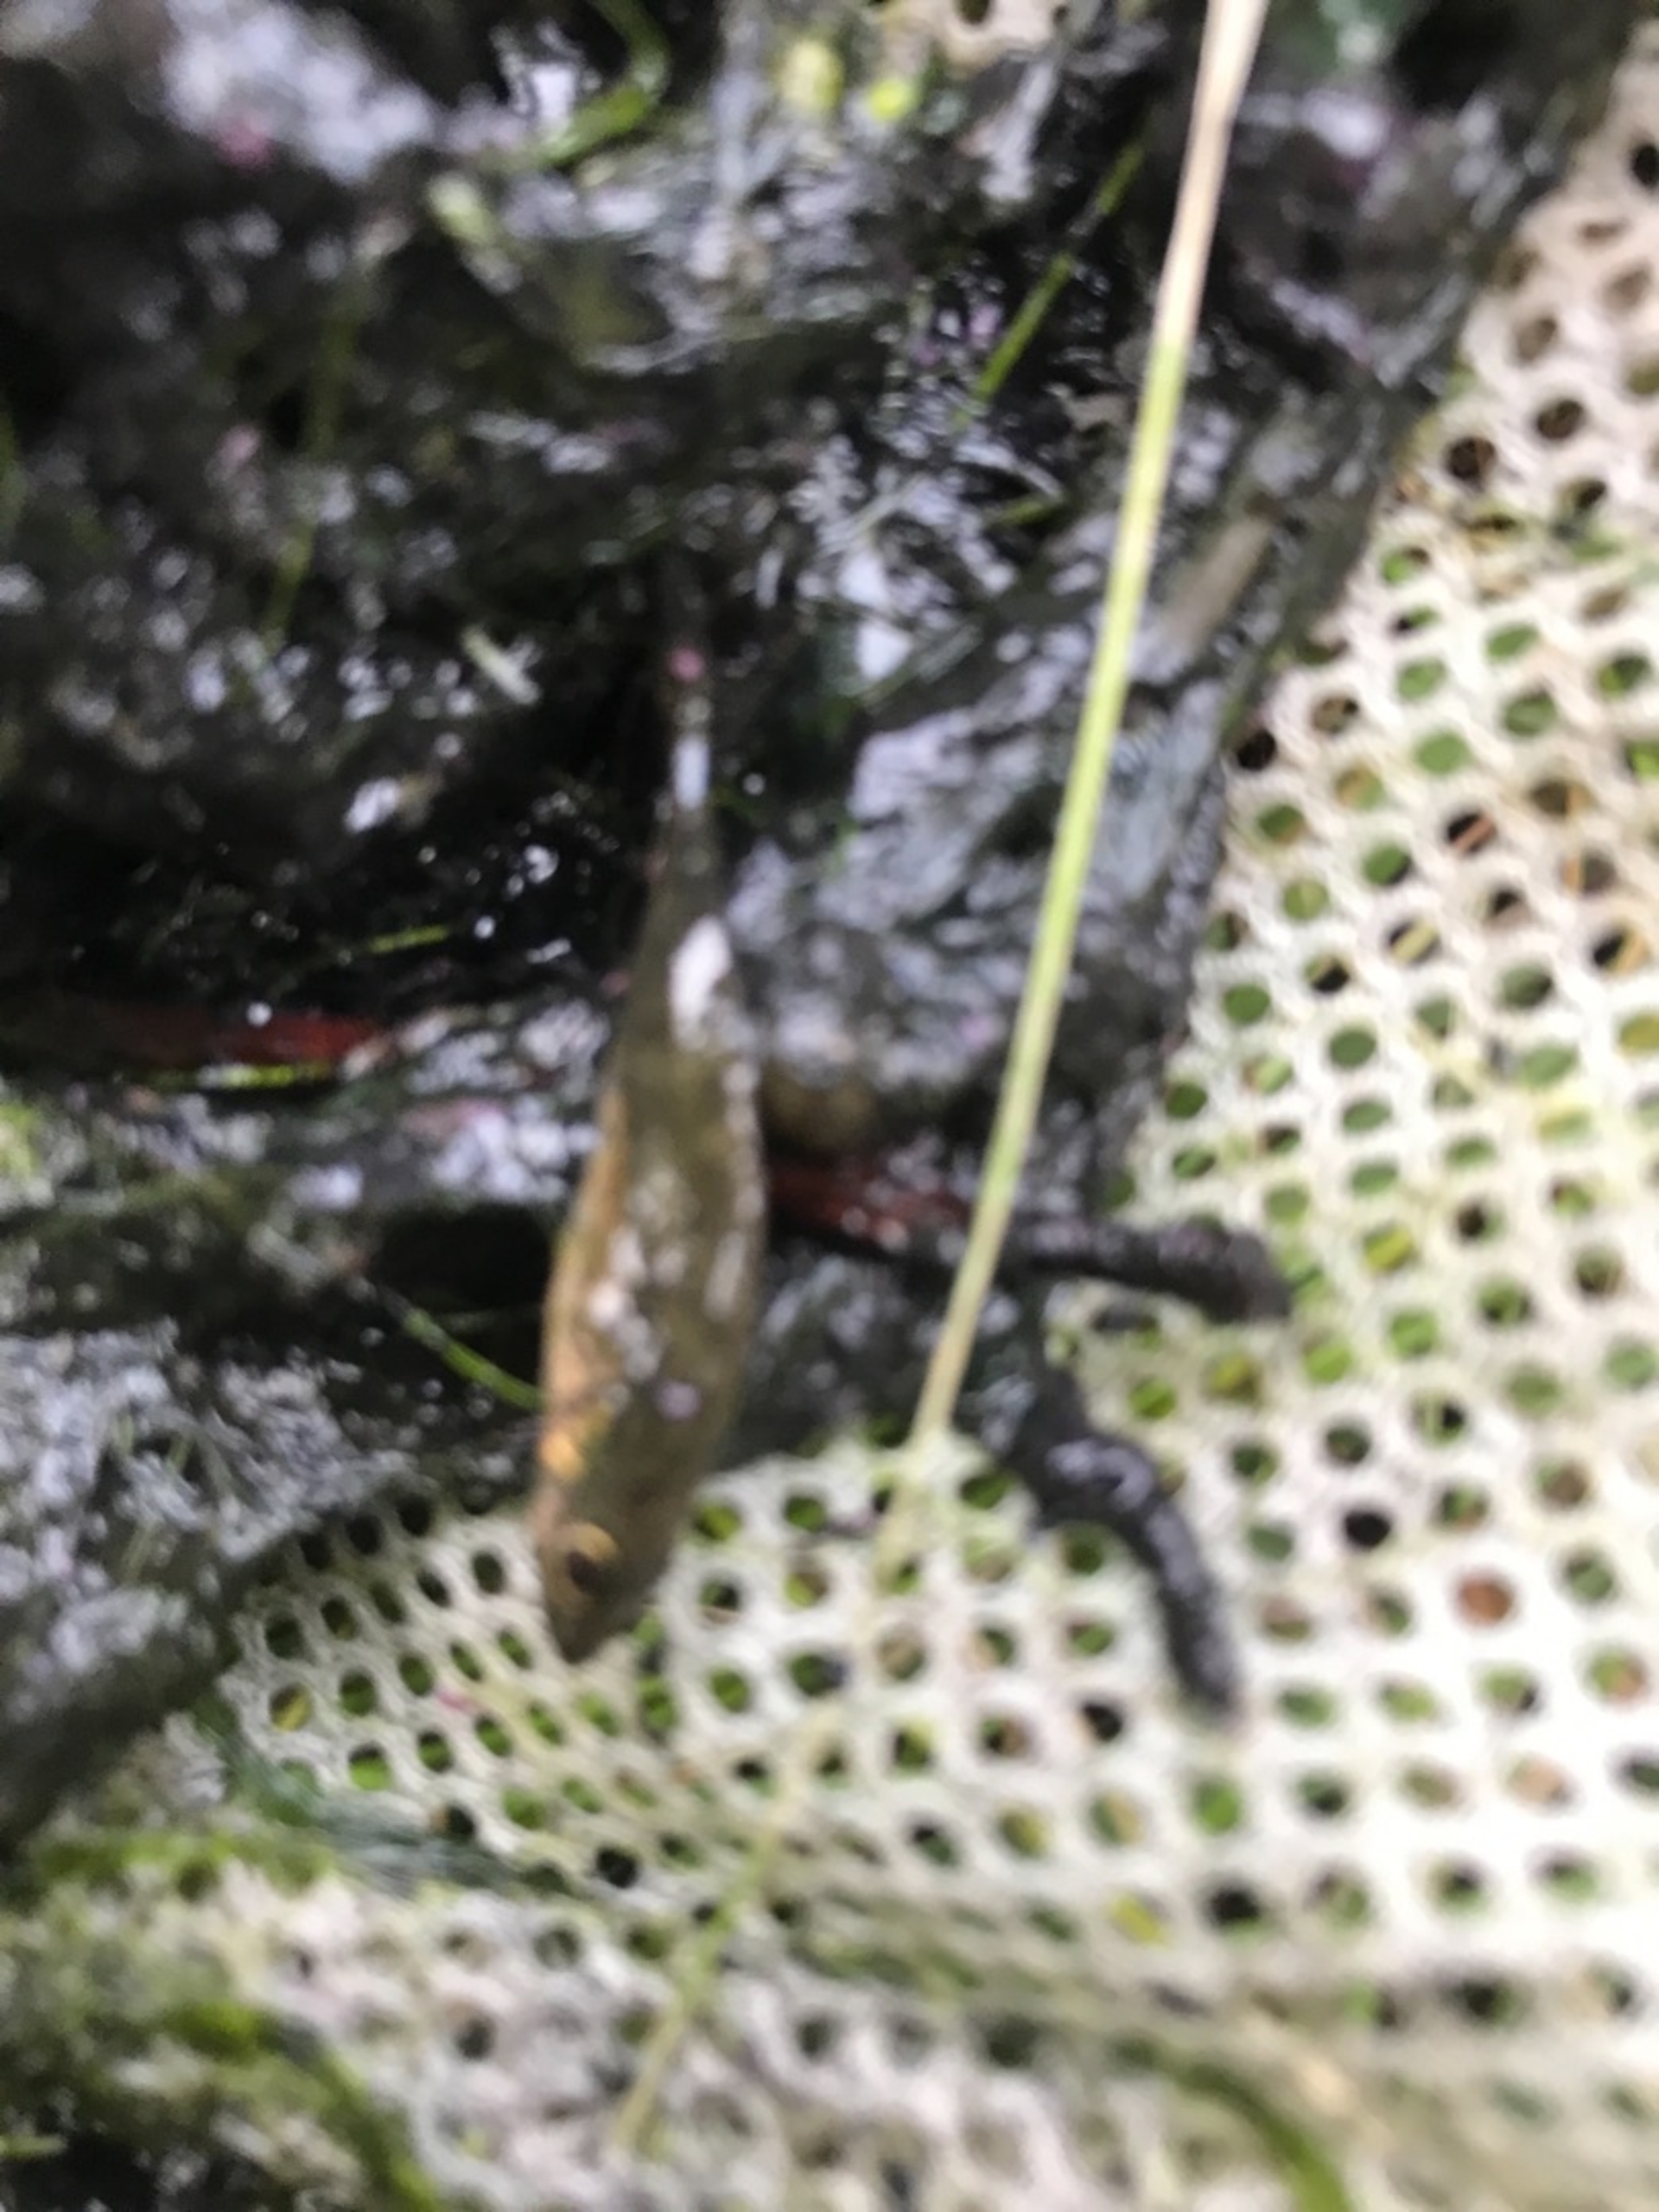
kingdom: Animalia
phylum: Chordata
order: Gasterosteiformes
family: Gasterosteidae
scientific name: Gasterosteidae
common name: Hundestejlefamilien
